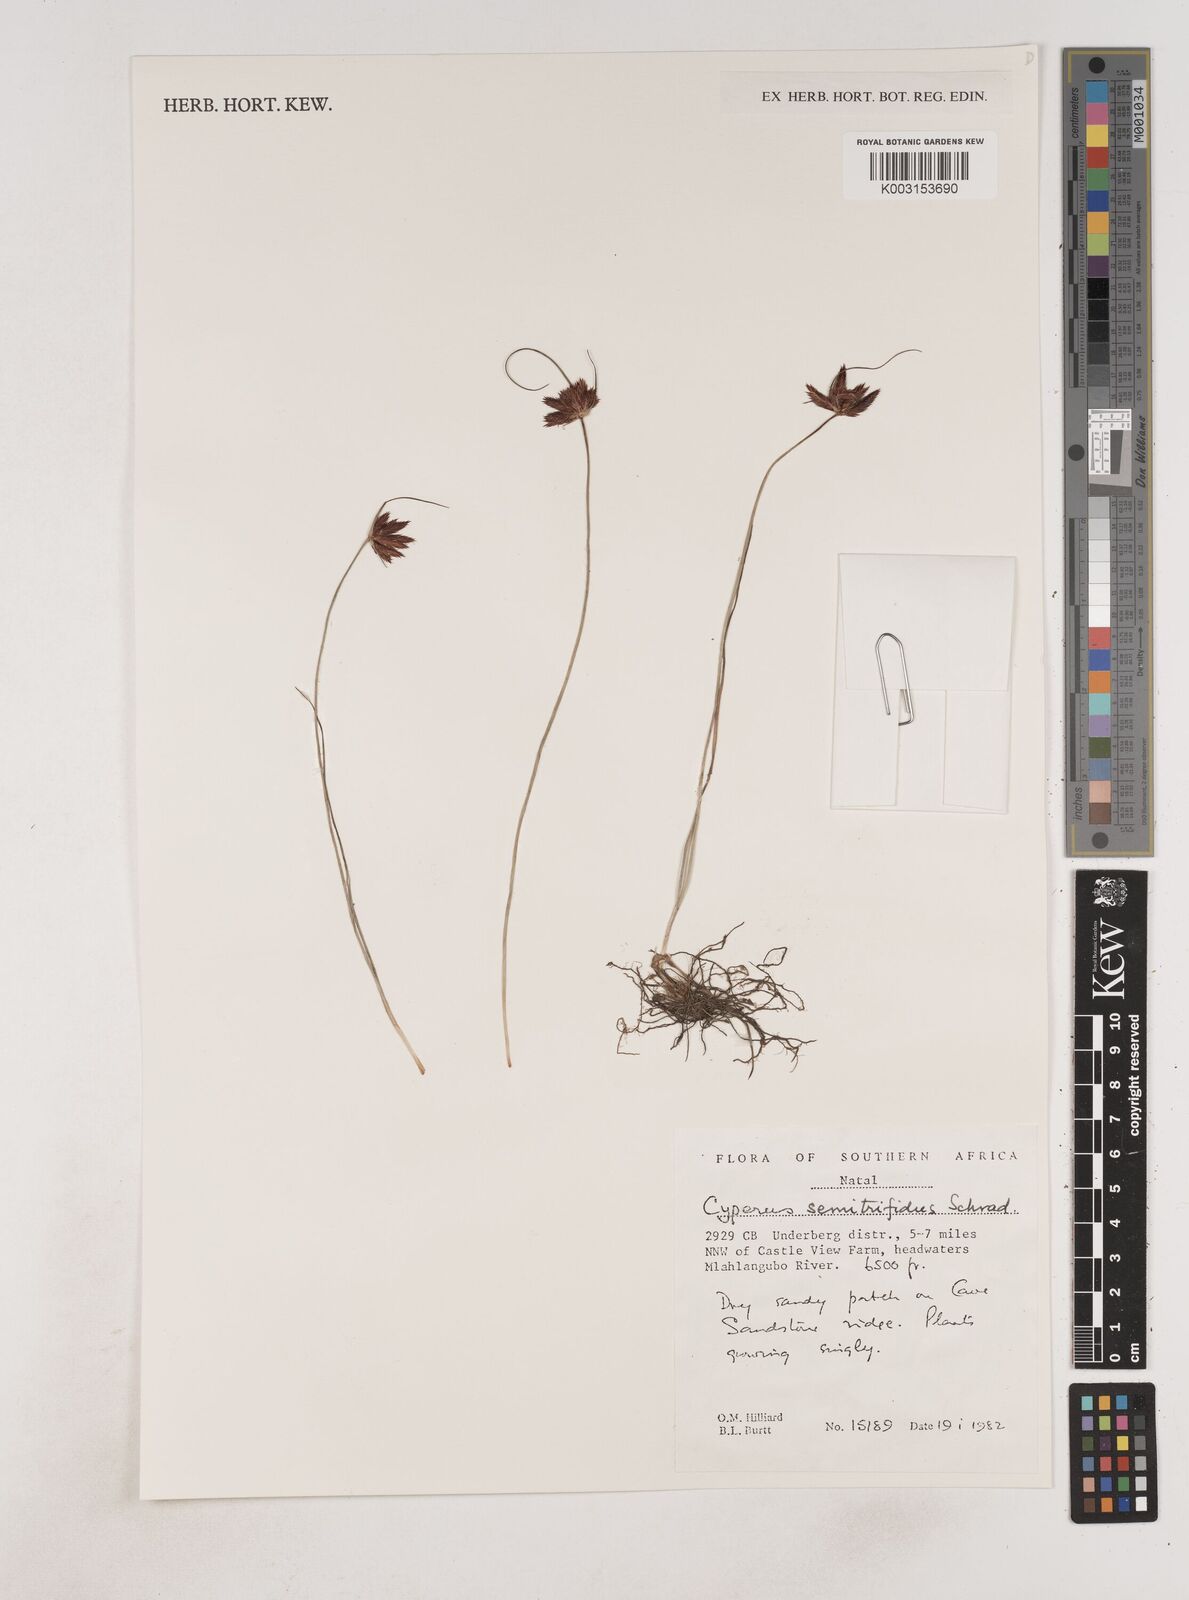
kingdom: Plantae
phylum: Tracheophyta
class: Liliopsida
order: Poales
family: Cyperaceae
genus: Cyperus
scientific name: Cyperus semitrifidus
